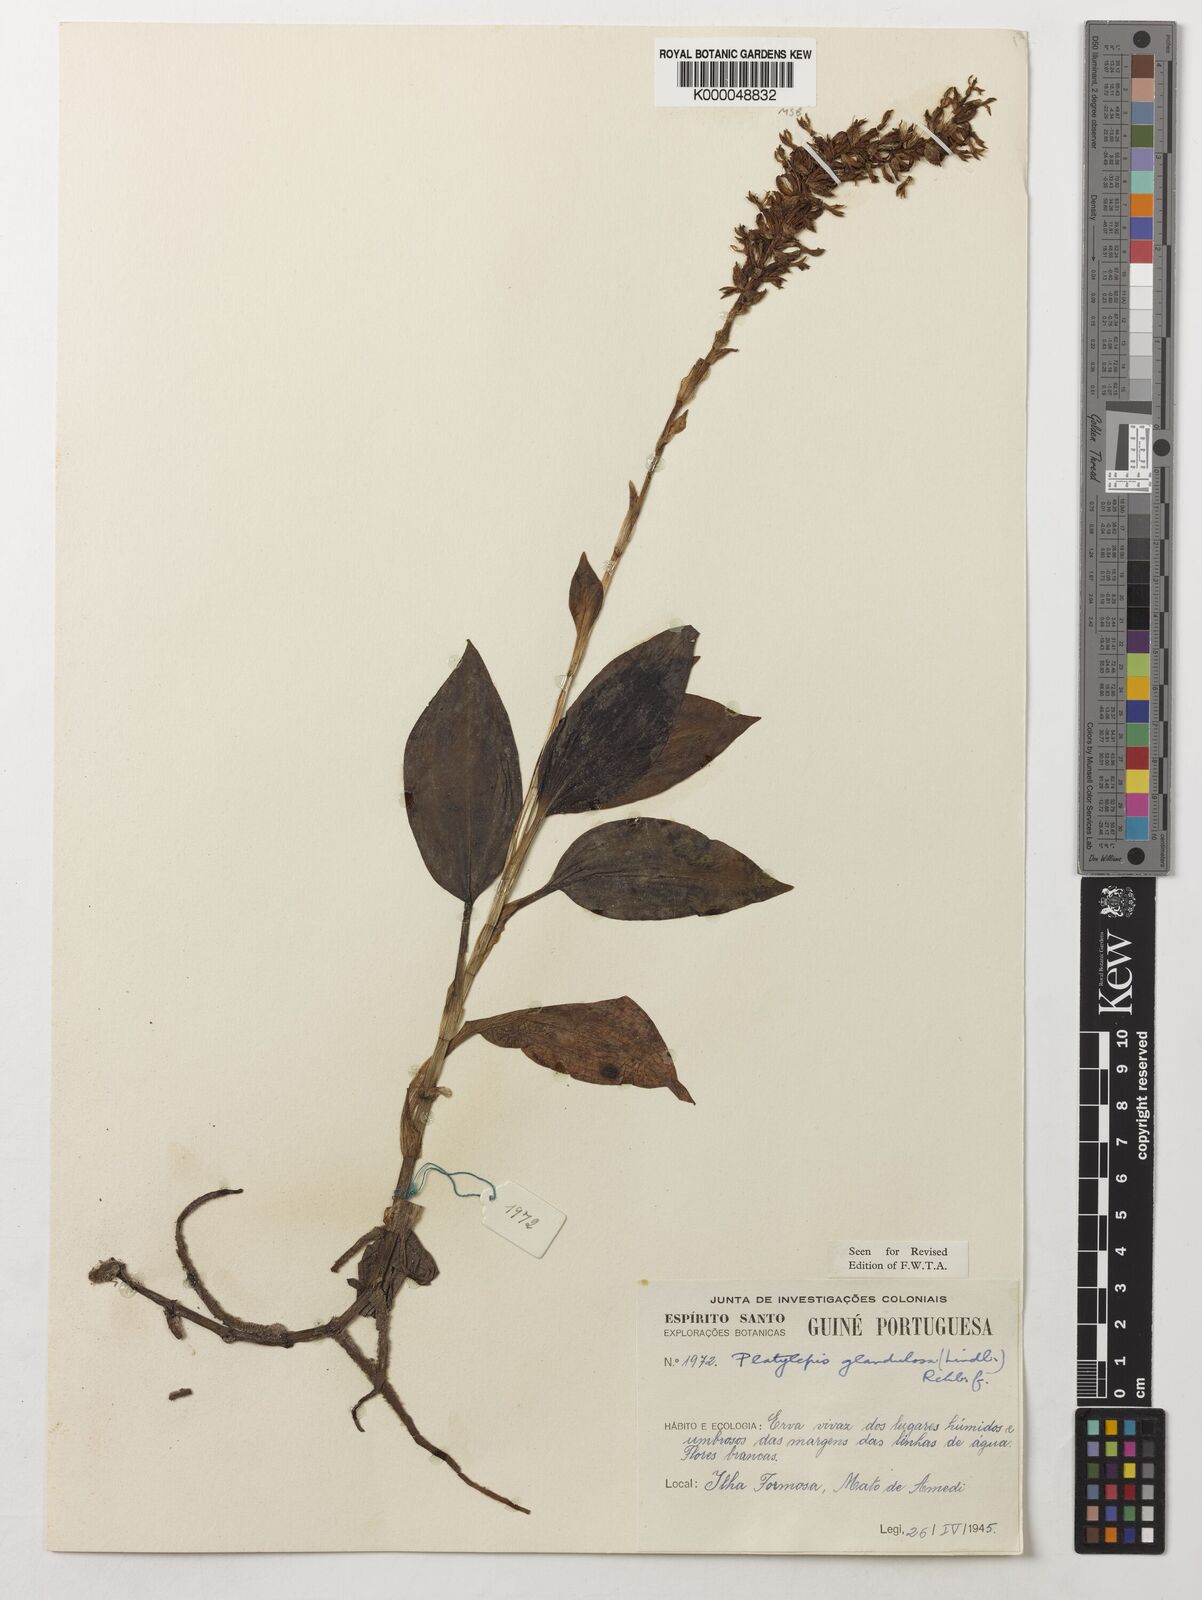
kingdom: Plantae
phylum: Tracheophyta
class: Liliopsida
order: Asparagales
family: Orchidaceae
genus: Platylepis
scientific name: Platylepis glandulosa
